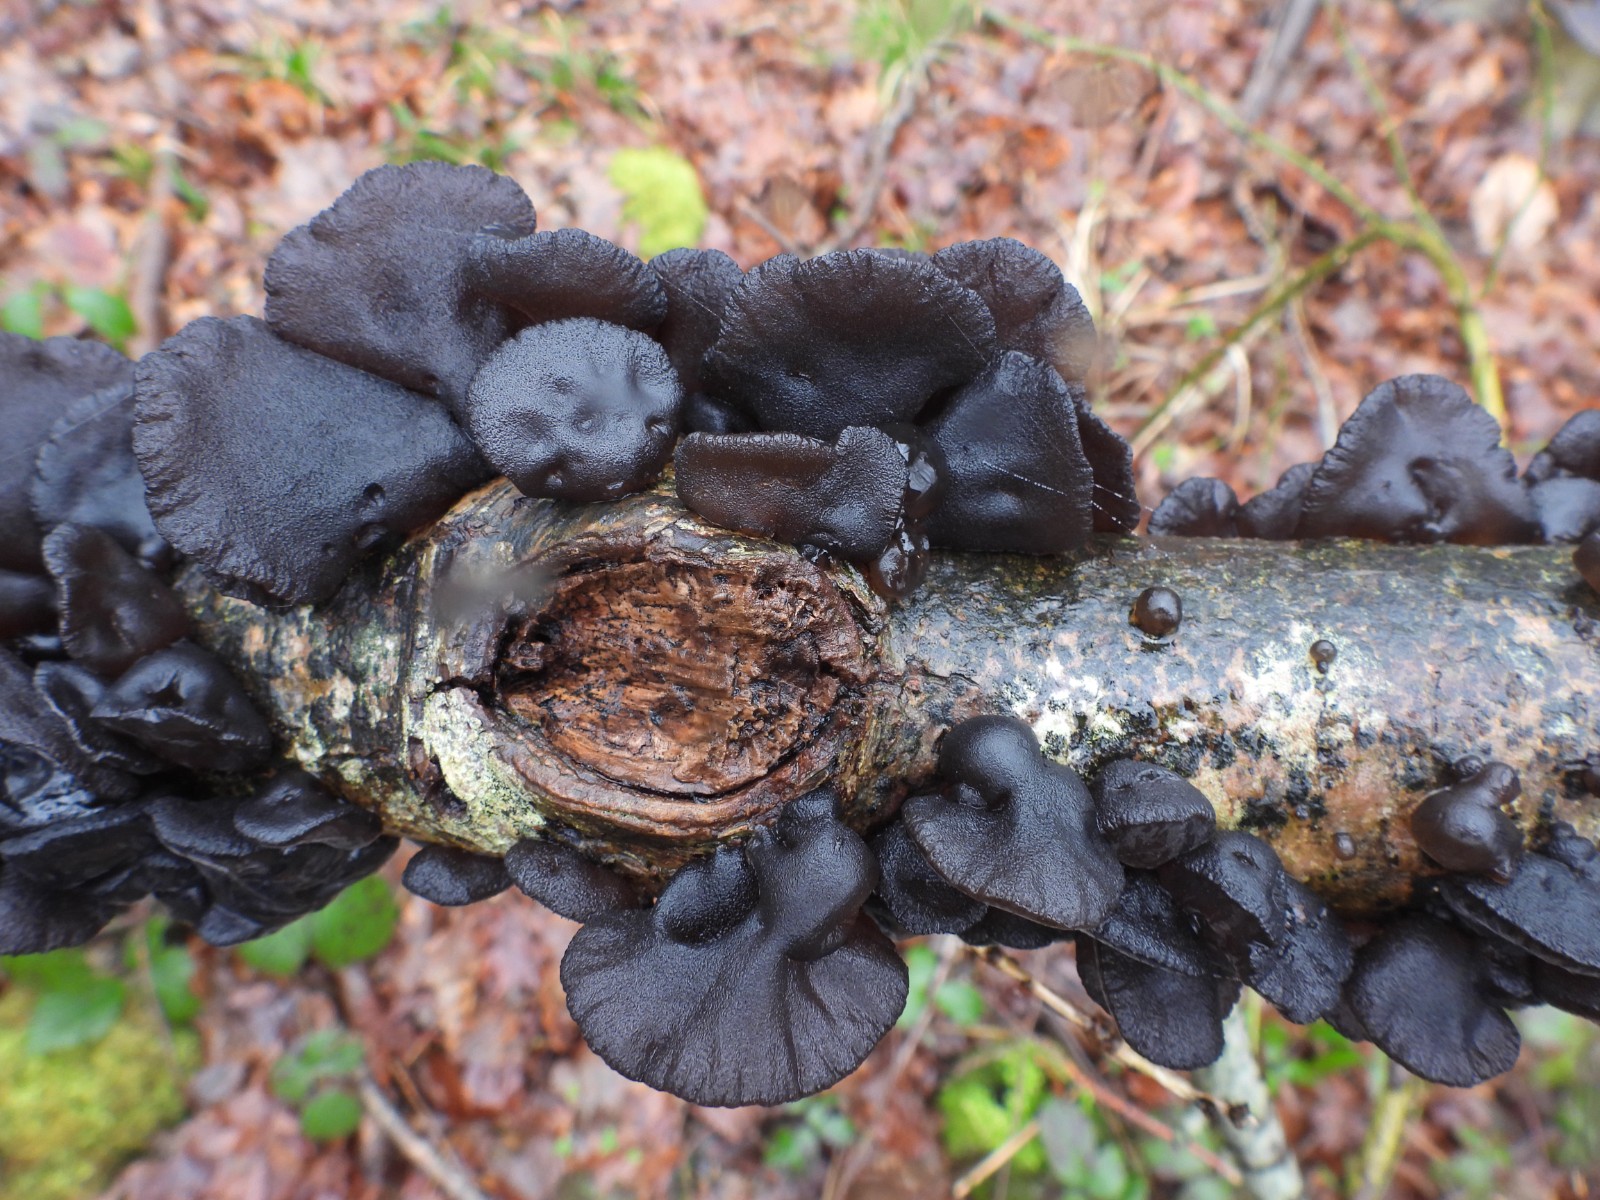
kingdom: Fungi
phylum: Basidiomycota
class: Agaricomycetes
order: Auriculariales
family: Auriculariaceae
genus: Exidia
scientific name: Exidia glandulosa
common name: ege-bævretop
